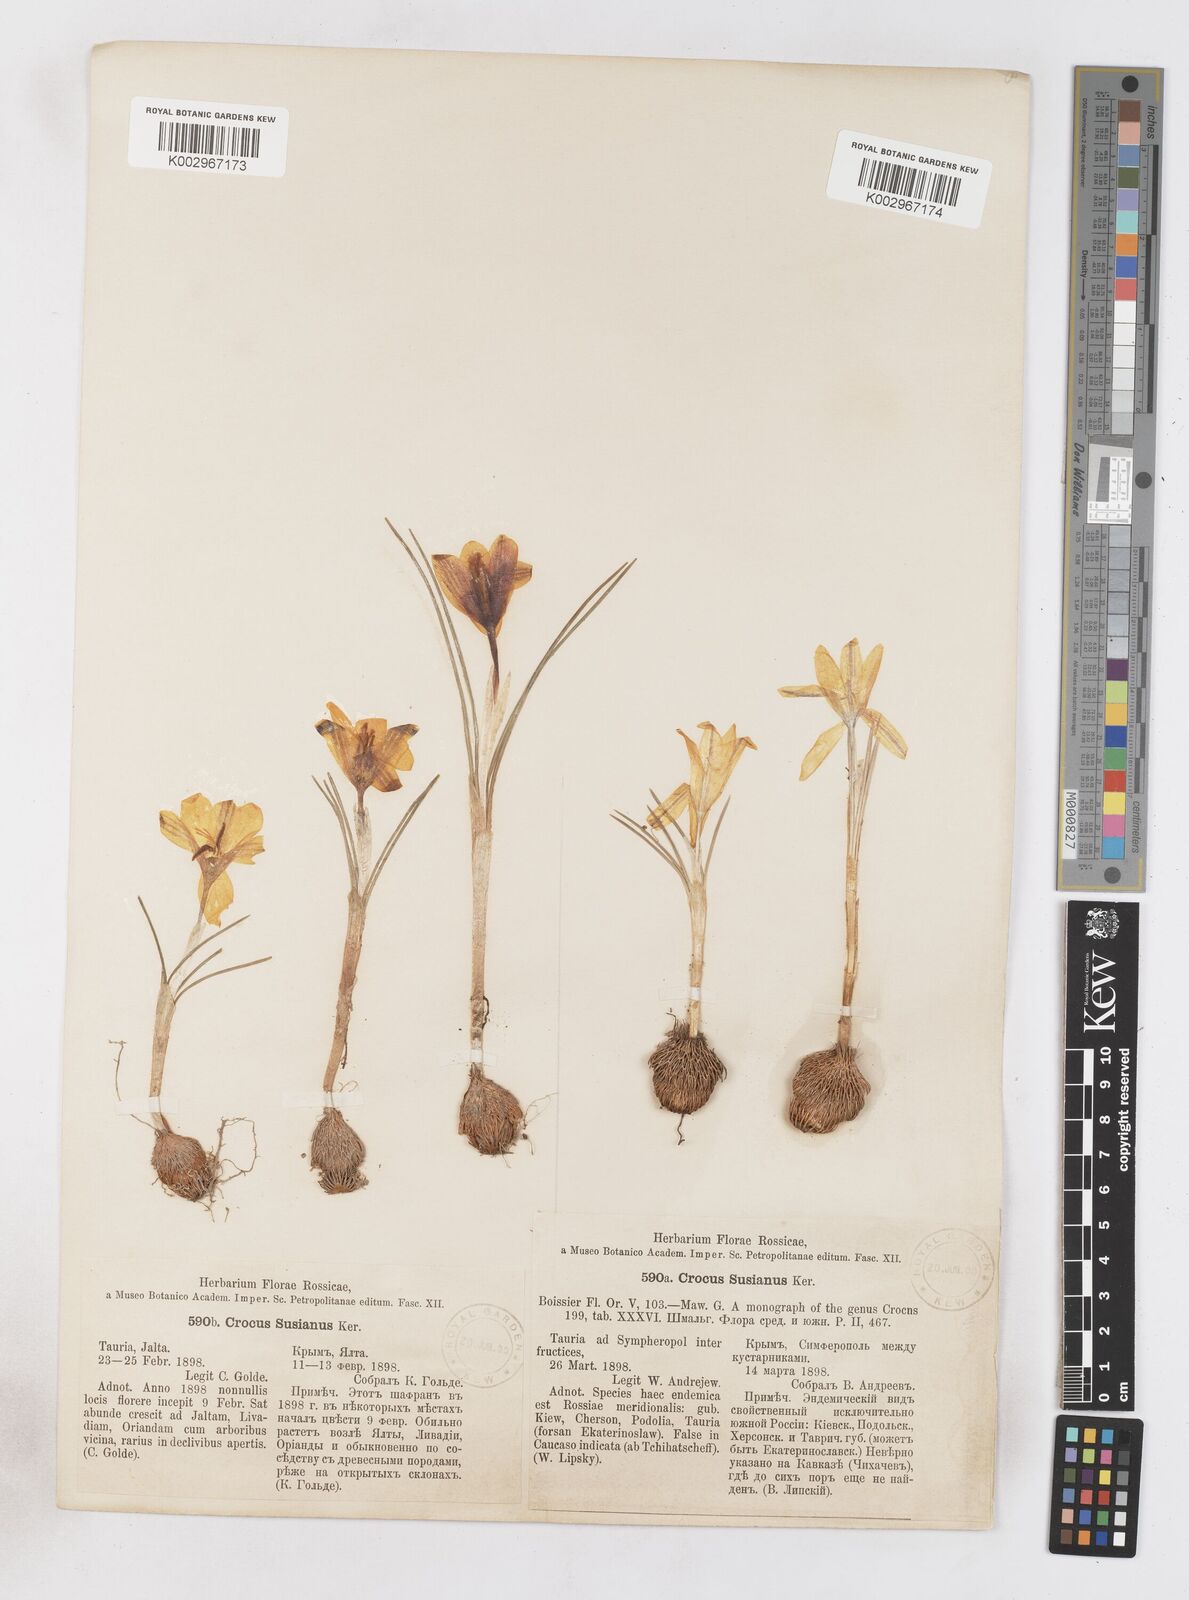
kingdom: Plantae
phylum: Tracheophyta
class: Liliopsida
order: Asparagales
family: Iridaceae
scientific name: Iridaceae
